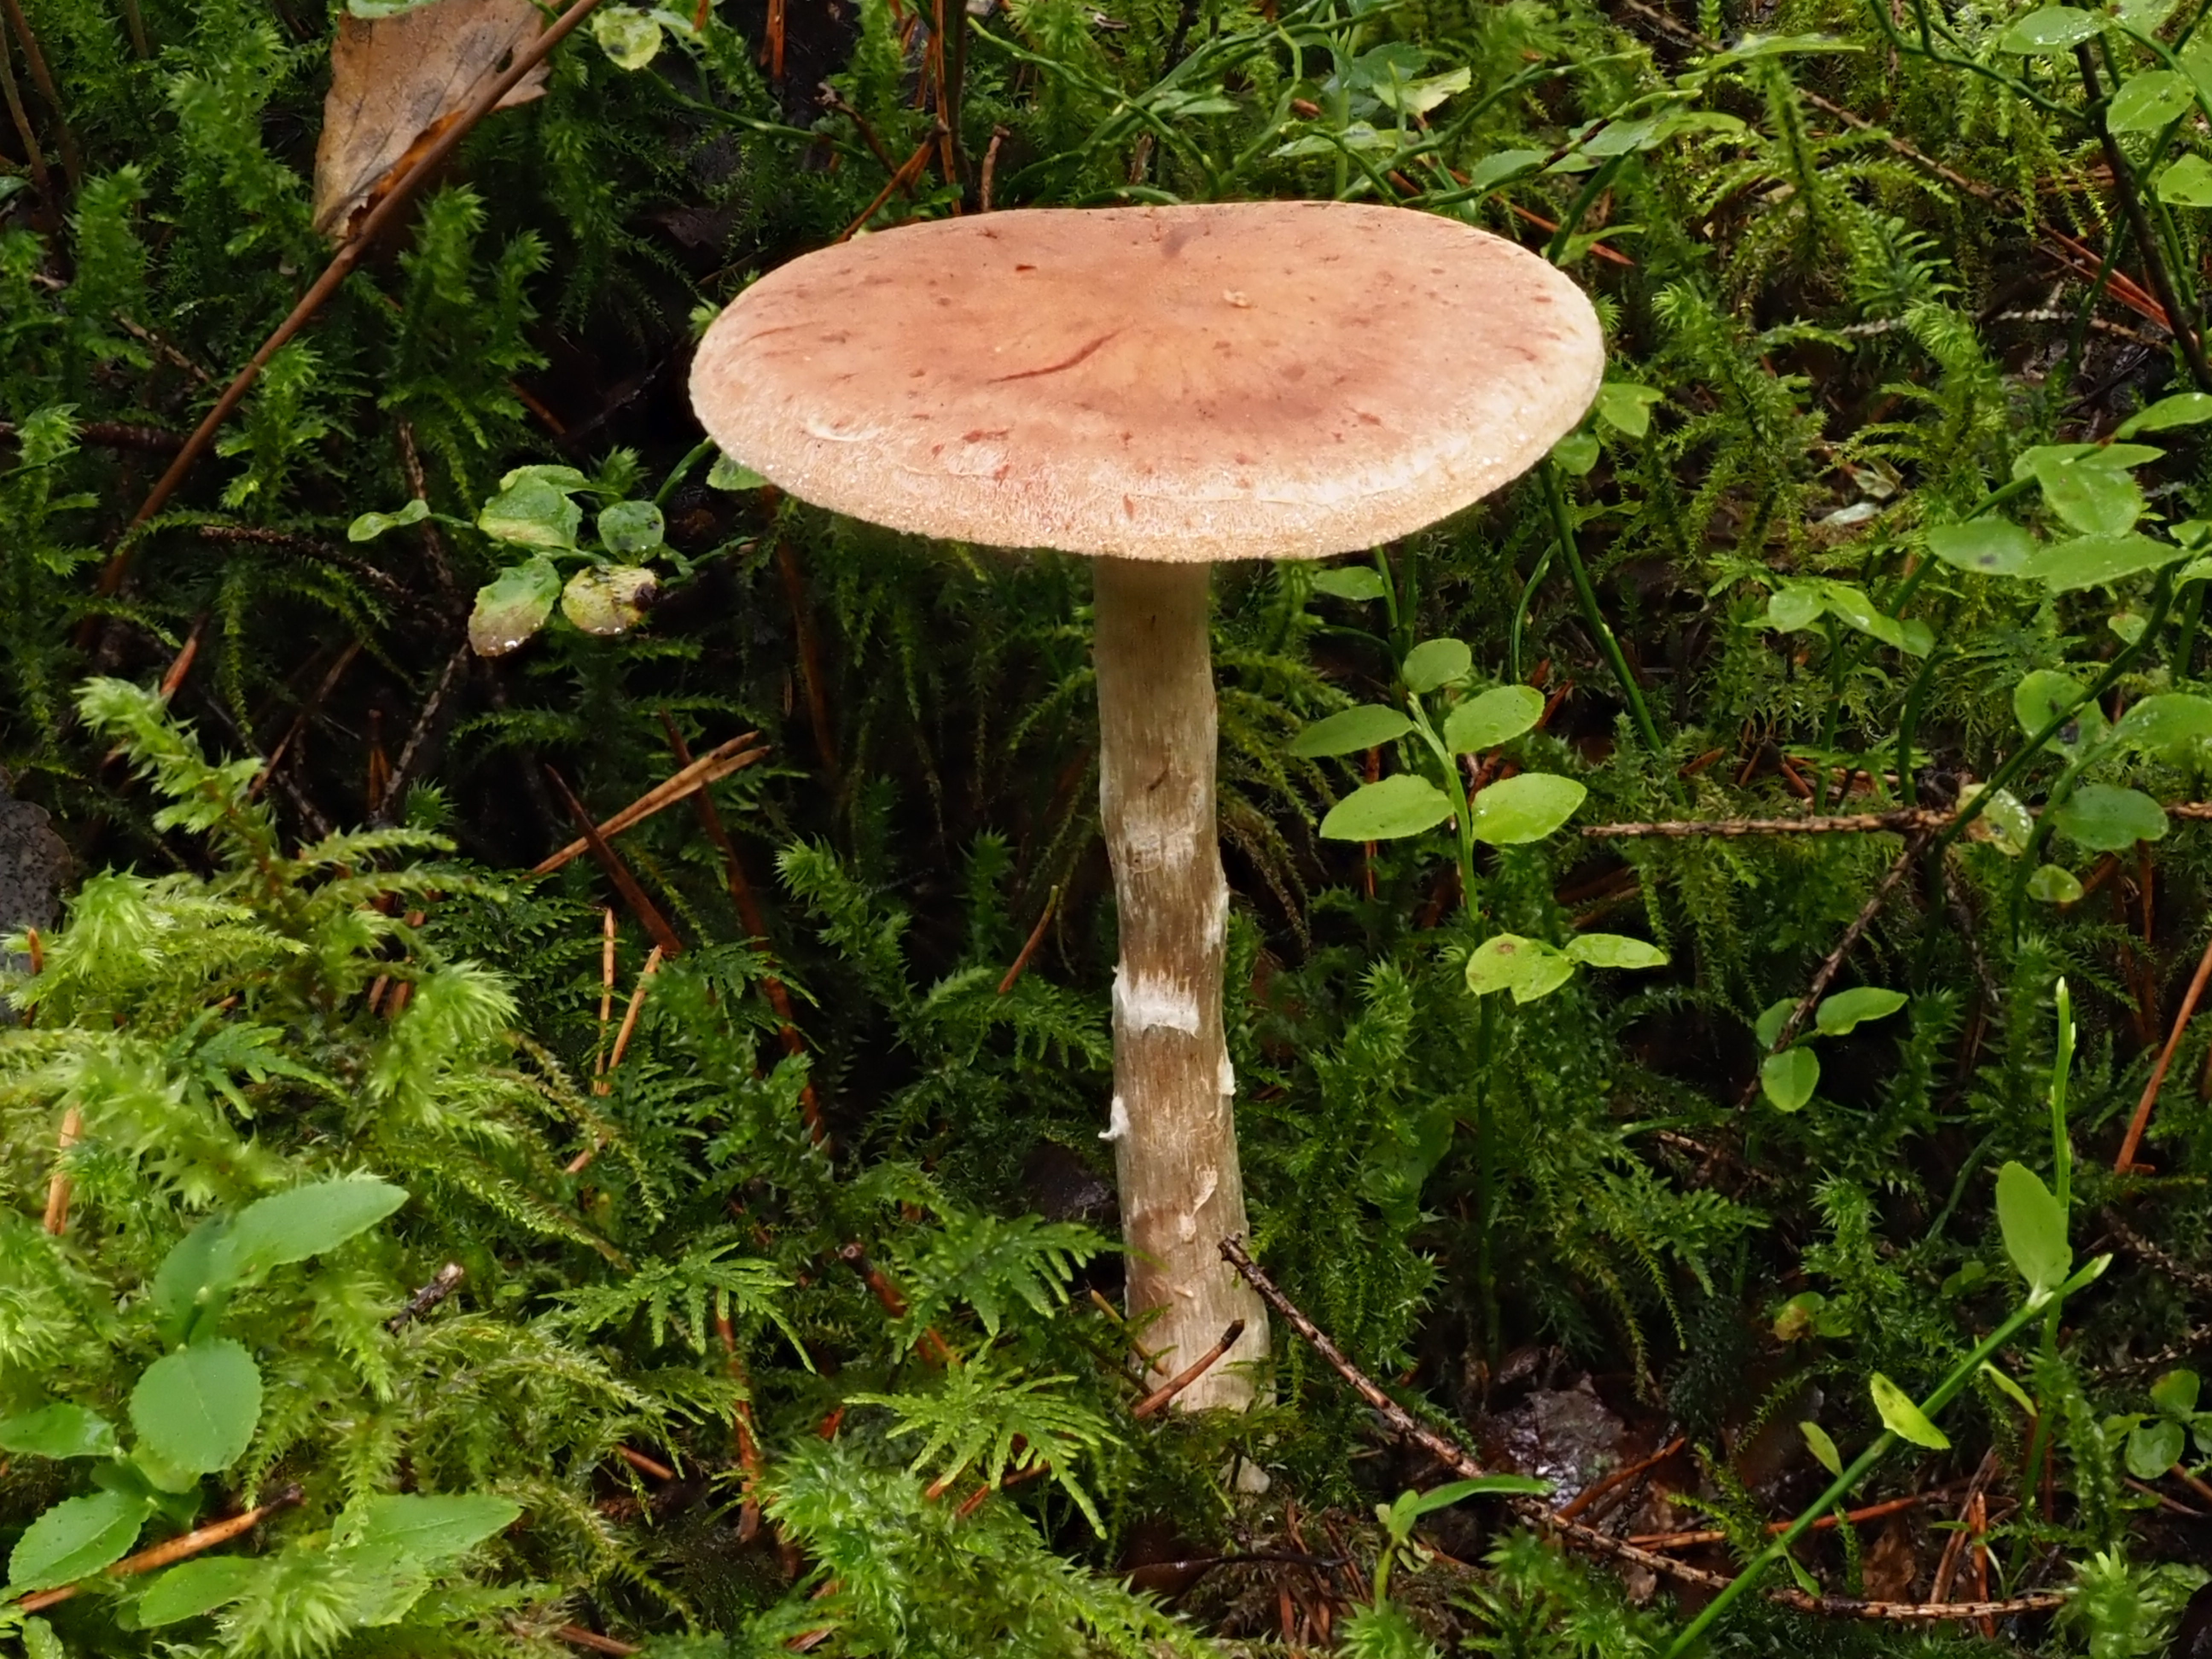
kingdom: Fungi
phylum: Basidiomycota
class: Agaricomycetes
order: Agaricales
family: Cortinariaceae
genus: Cortinarius
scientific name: Cortinarius laniger
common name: Woolly webcap
